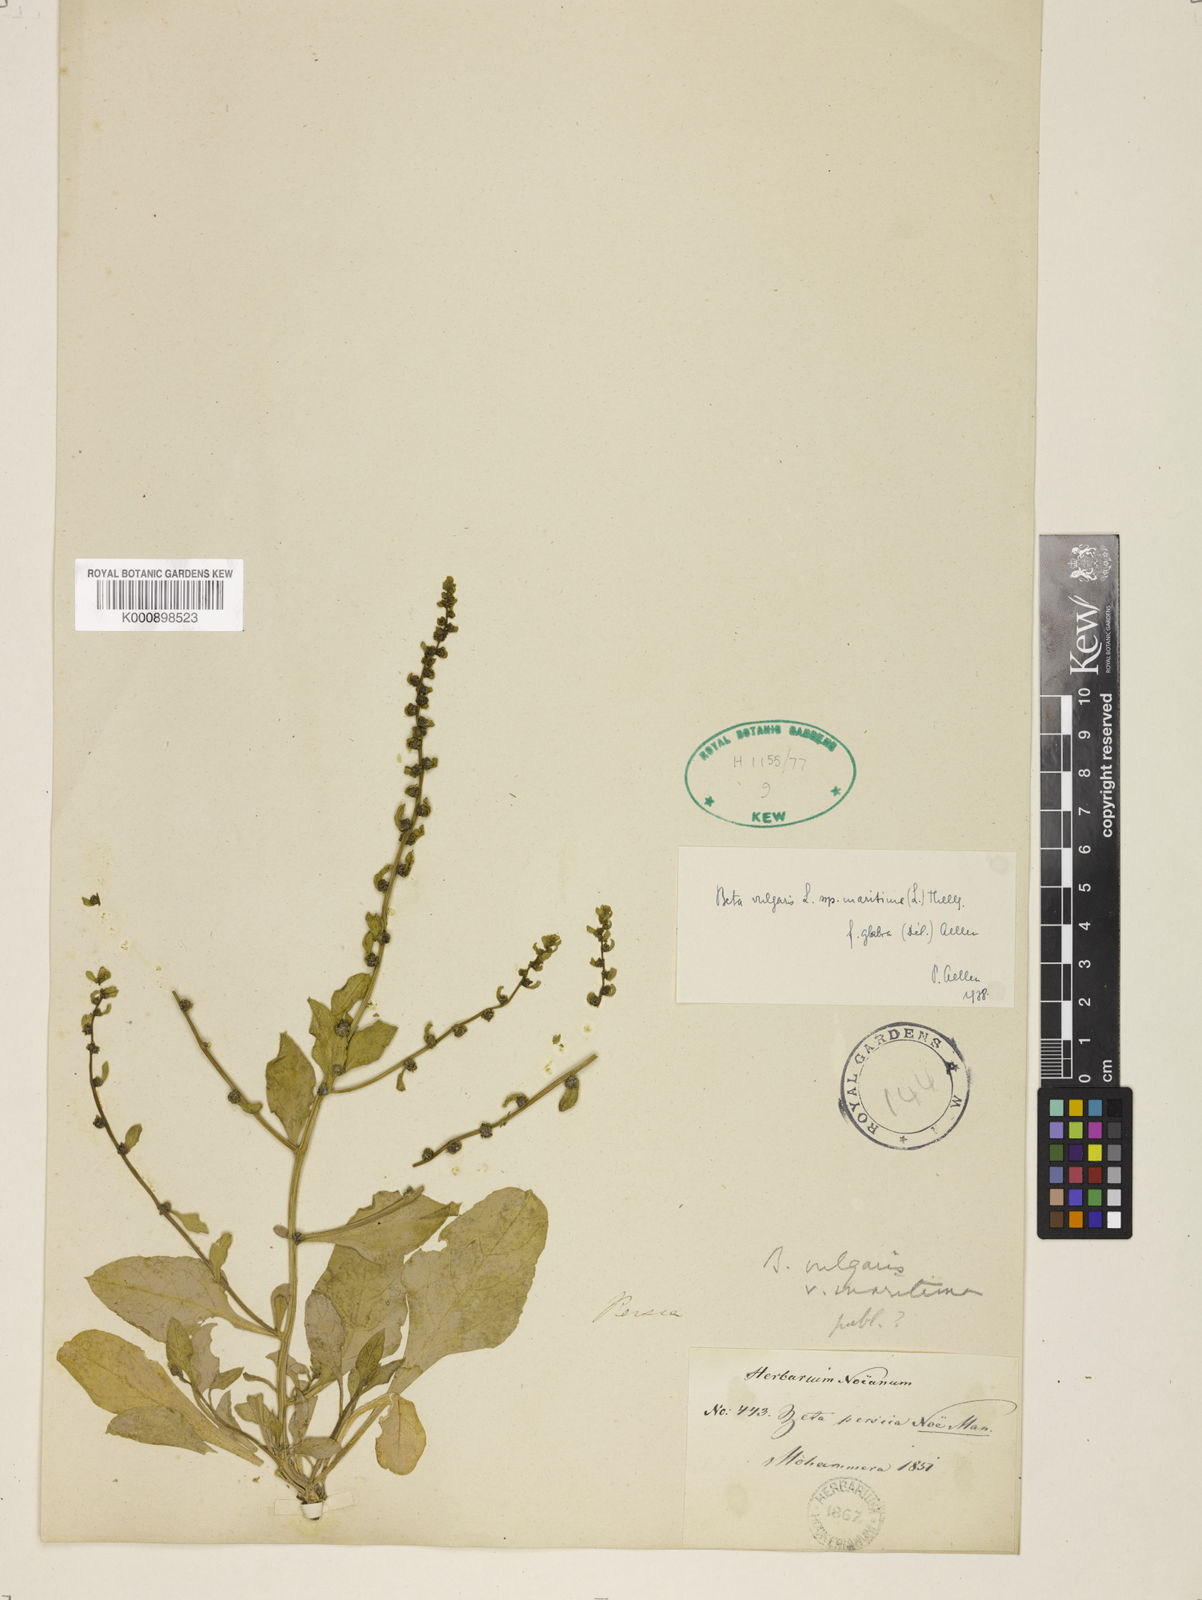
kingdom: Plantae
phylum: Tracheophyta
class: Magnoliopsida
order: Caryophyllales
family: Amaranthaceae
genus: Beta
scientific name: Beta vulgaris
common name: Beet
